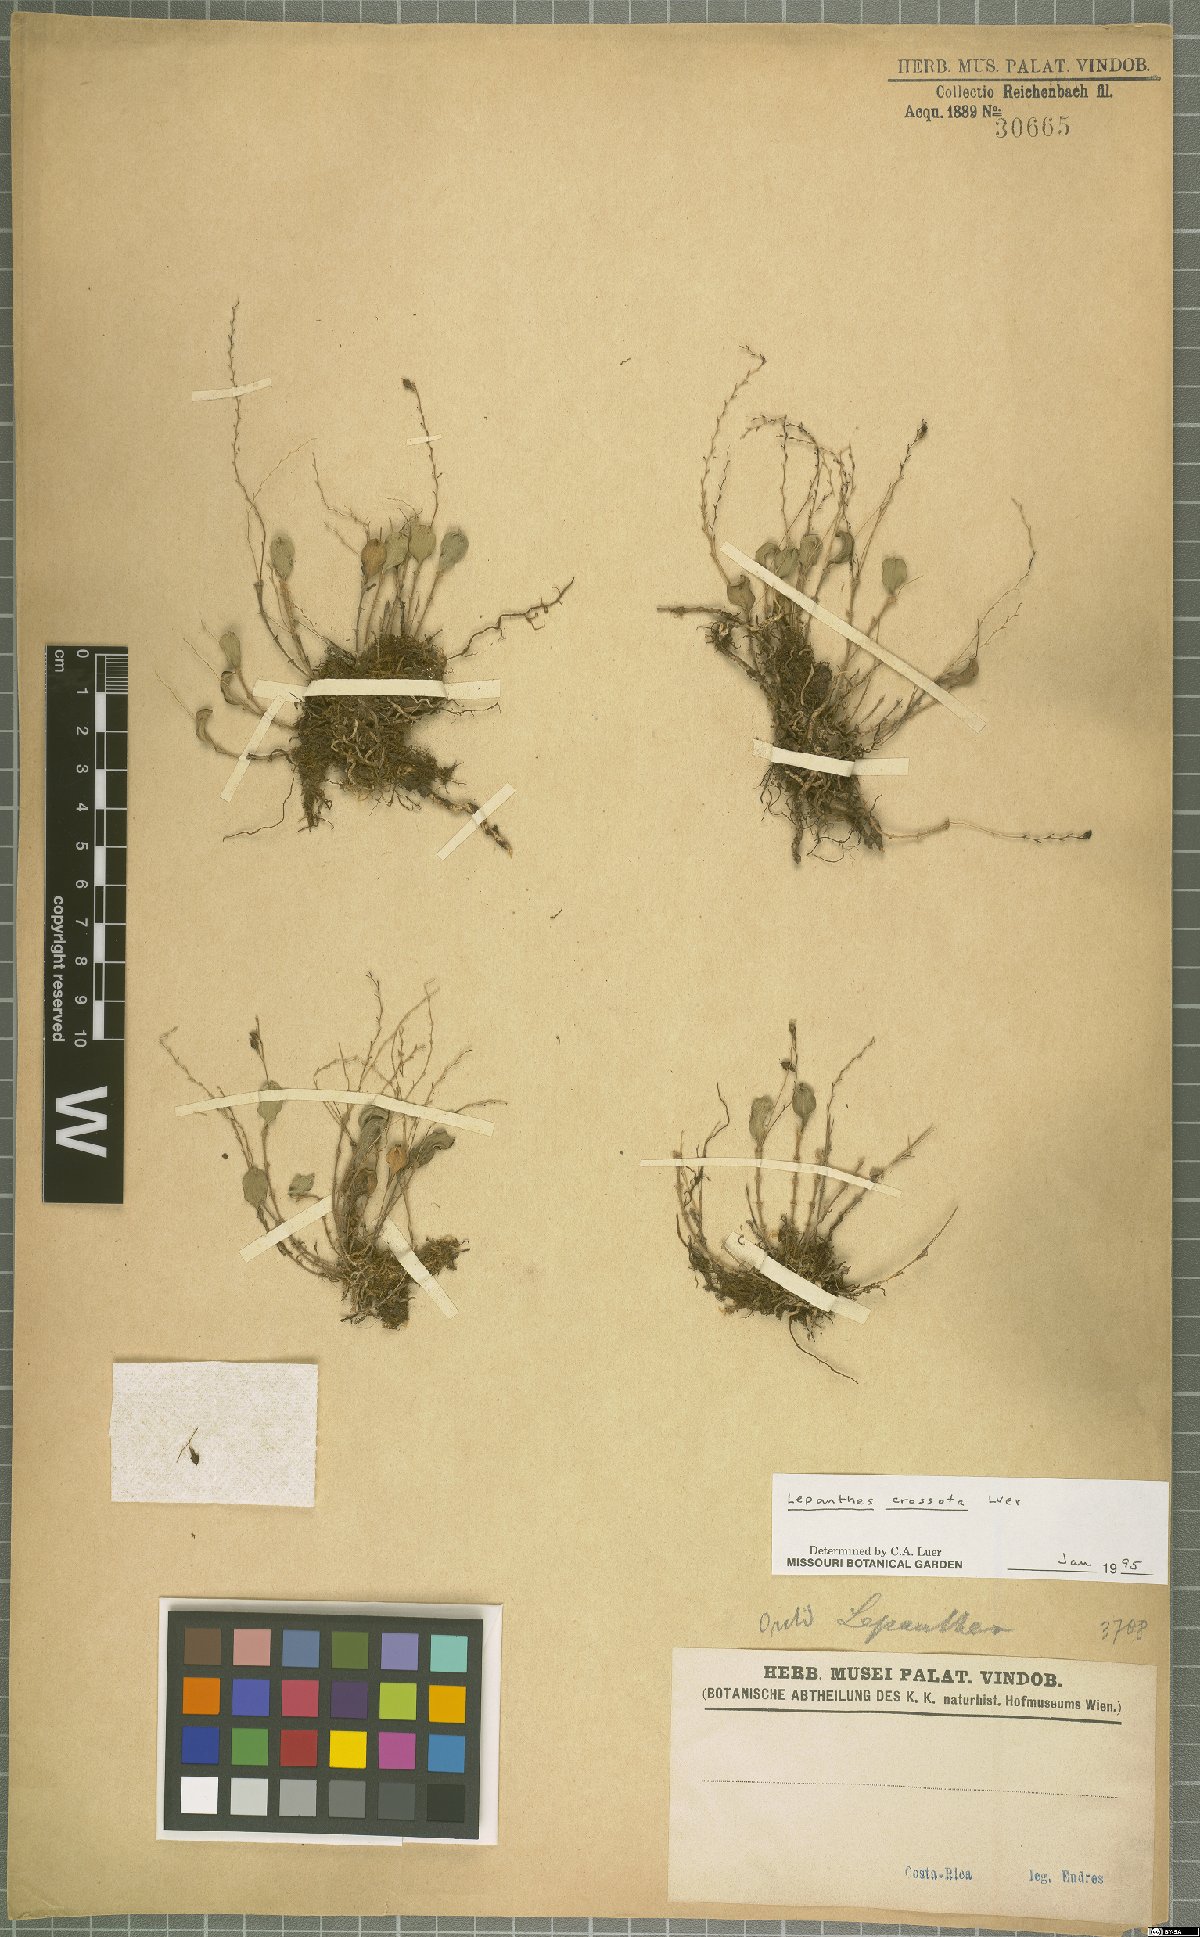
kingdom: Plantae
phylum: Tracheophyta
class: Liliopsida
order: Asparagales
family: Orchidaceae
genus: Lepanthes
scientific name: Lepanthes jimenezii
